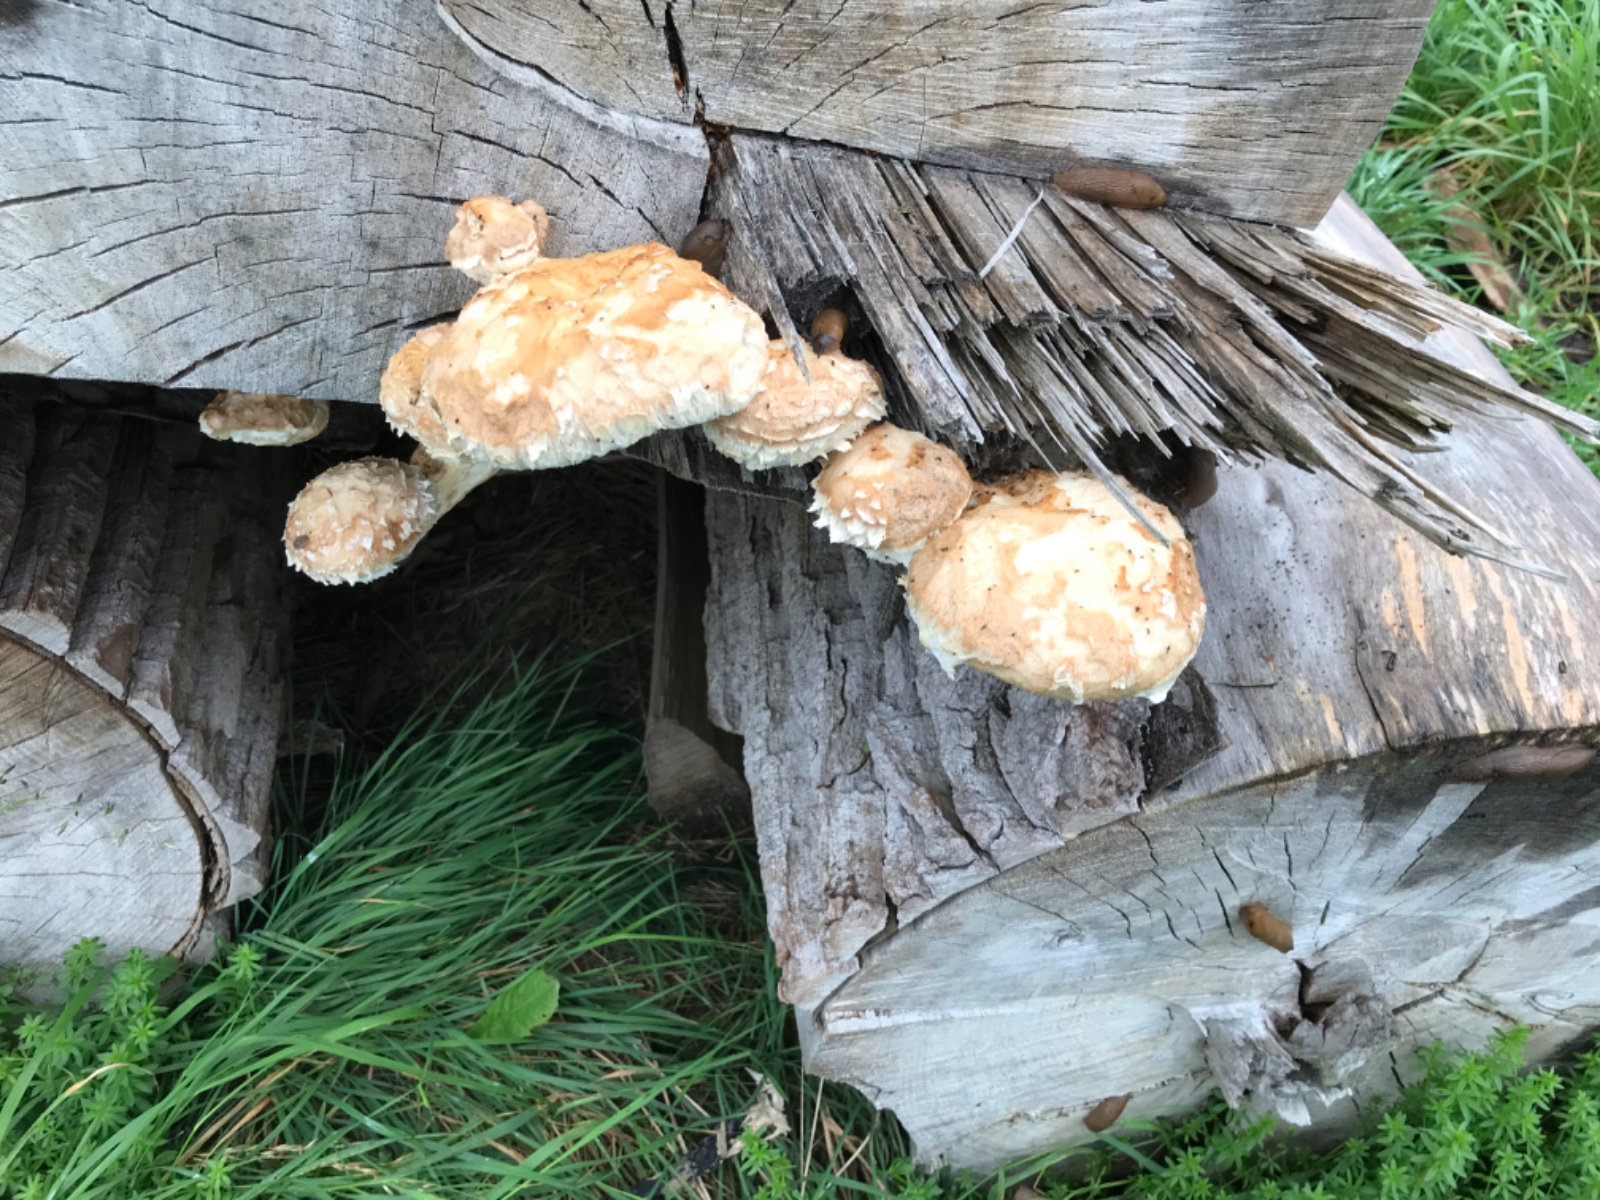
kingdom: Fungi
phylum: Basidiomycota
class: Agaricomycetes
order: Agaricales
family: Strophariaceae
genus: Pholiota
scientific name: Pholiota populnea
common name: poppel-kæmpeskælhat
